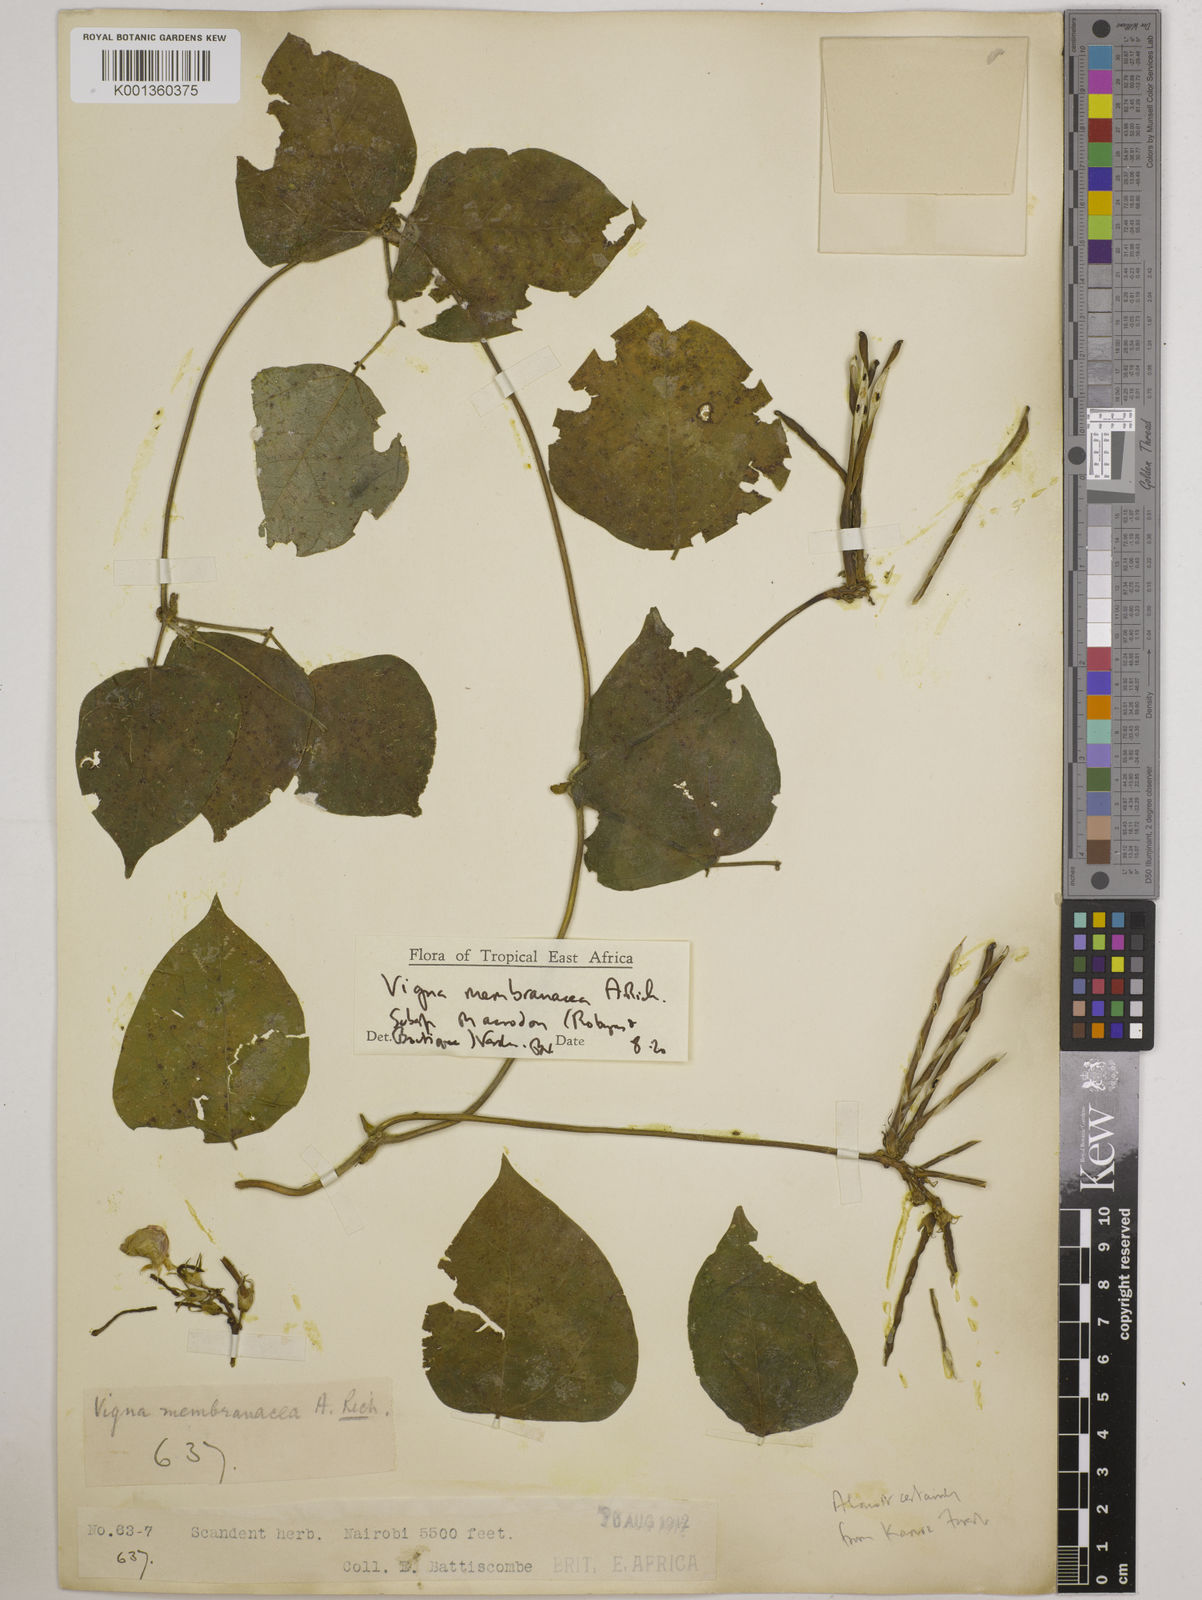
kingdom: Plantae
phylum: Tracheophyta
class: Magnoliopsida
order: Fabales
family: Fabaceae
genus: Vigna
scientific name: Vigna
